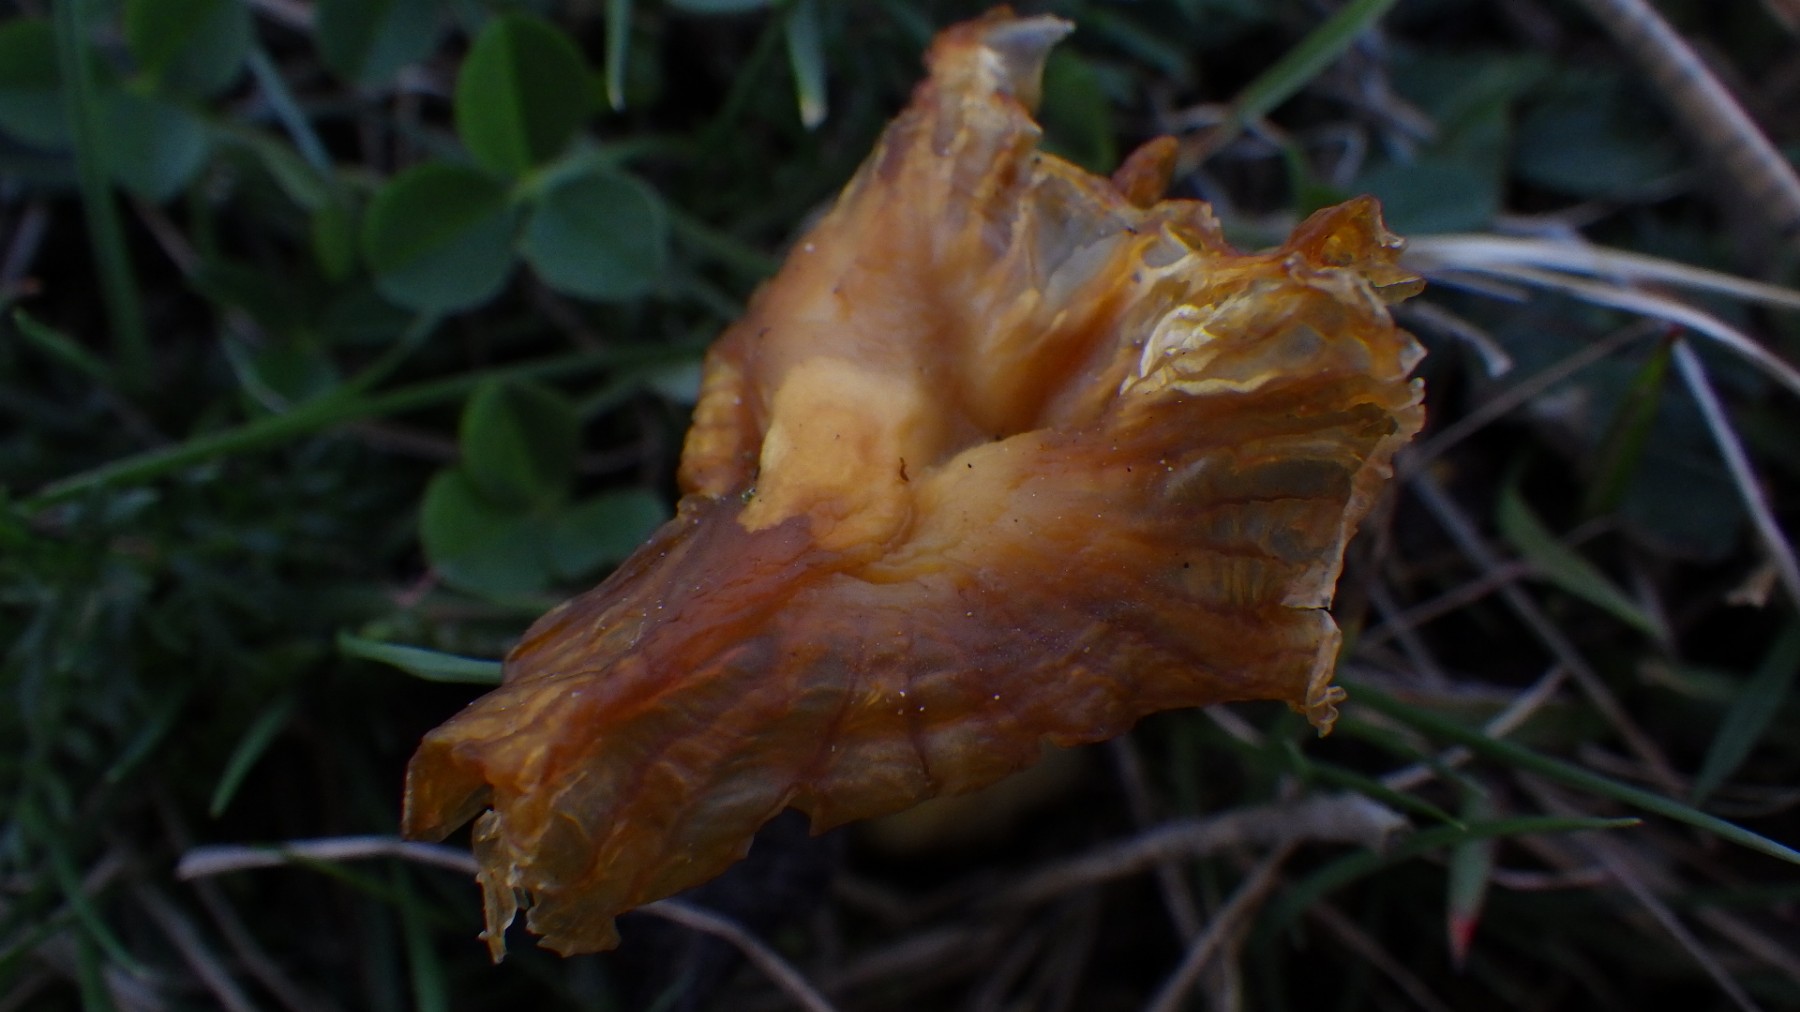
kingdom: Fungi
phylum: Basidiomycota
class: Agaricomycetes
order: Agaricales
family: Hygrophoraceae
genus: Hygrocybe
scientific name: Hygrocybe
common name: vokshat
